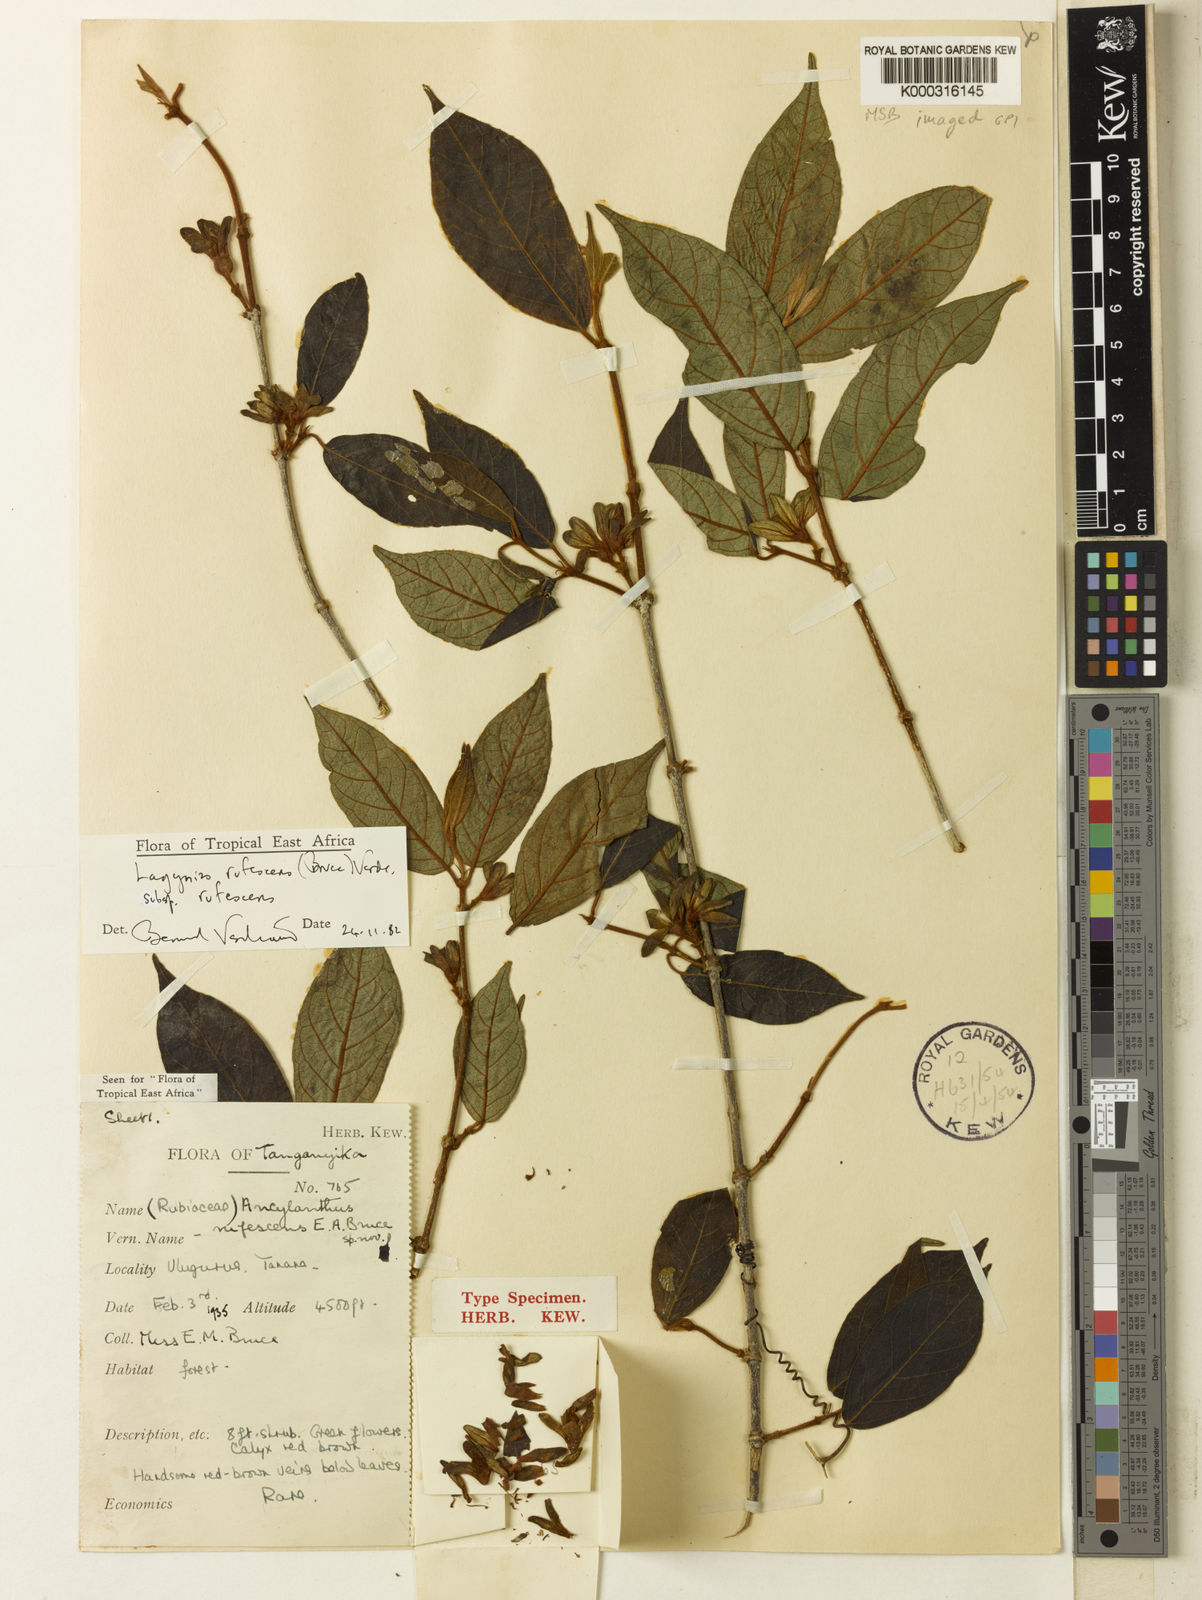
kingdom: Plantae
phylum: Tracheophyta
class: Magnoliopsida
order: Gentianales
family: Rubiaceae
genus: Vangueria
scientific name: Vangueria rufescens
